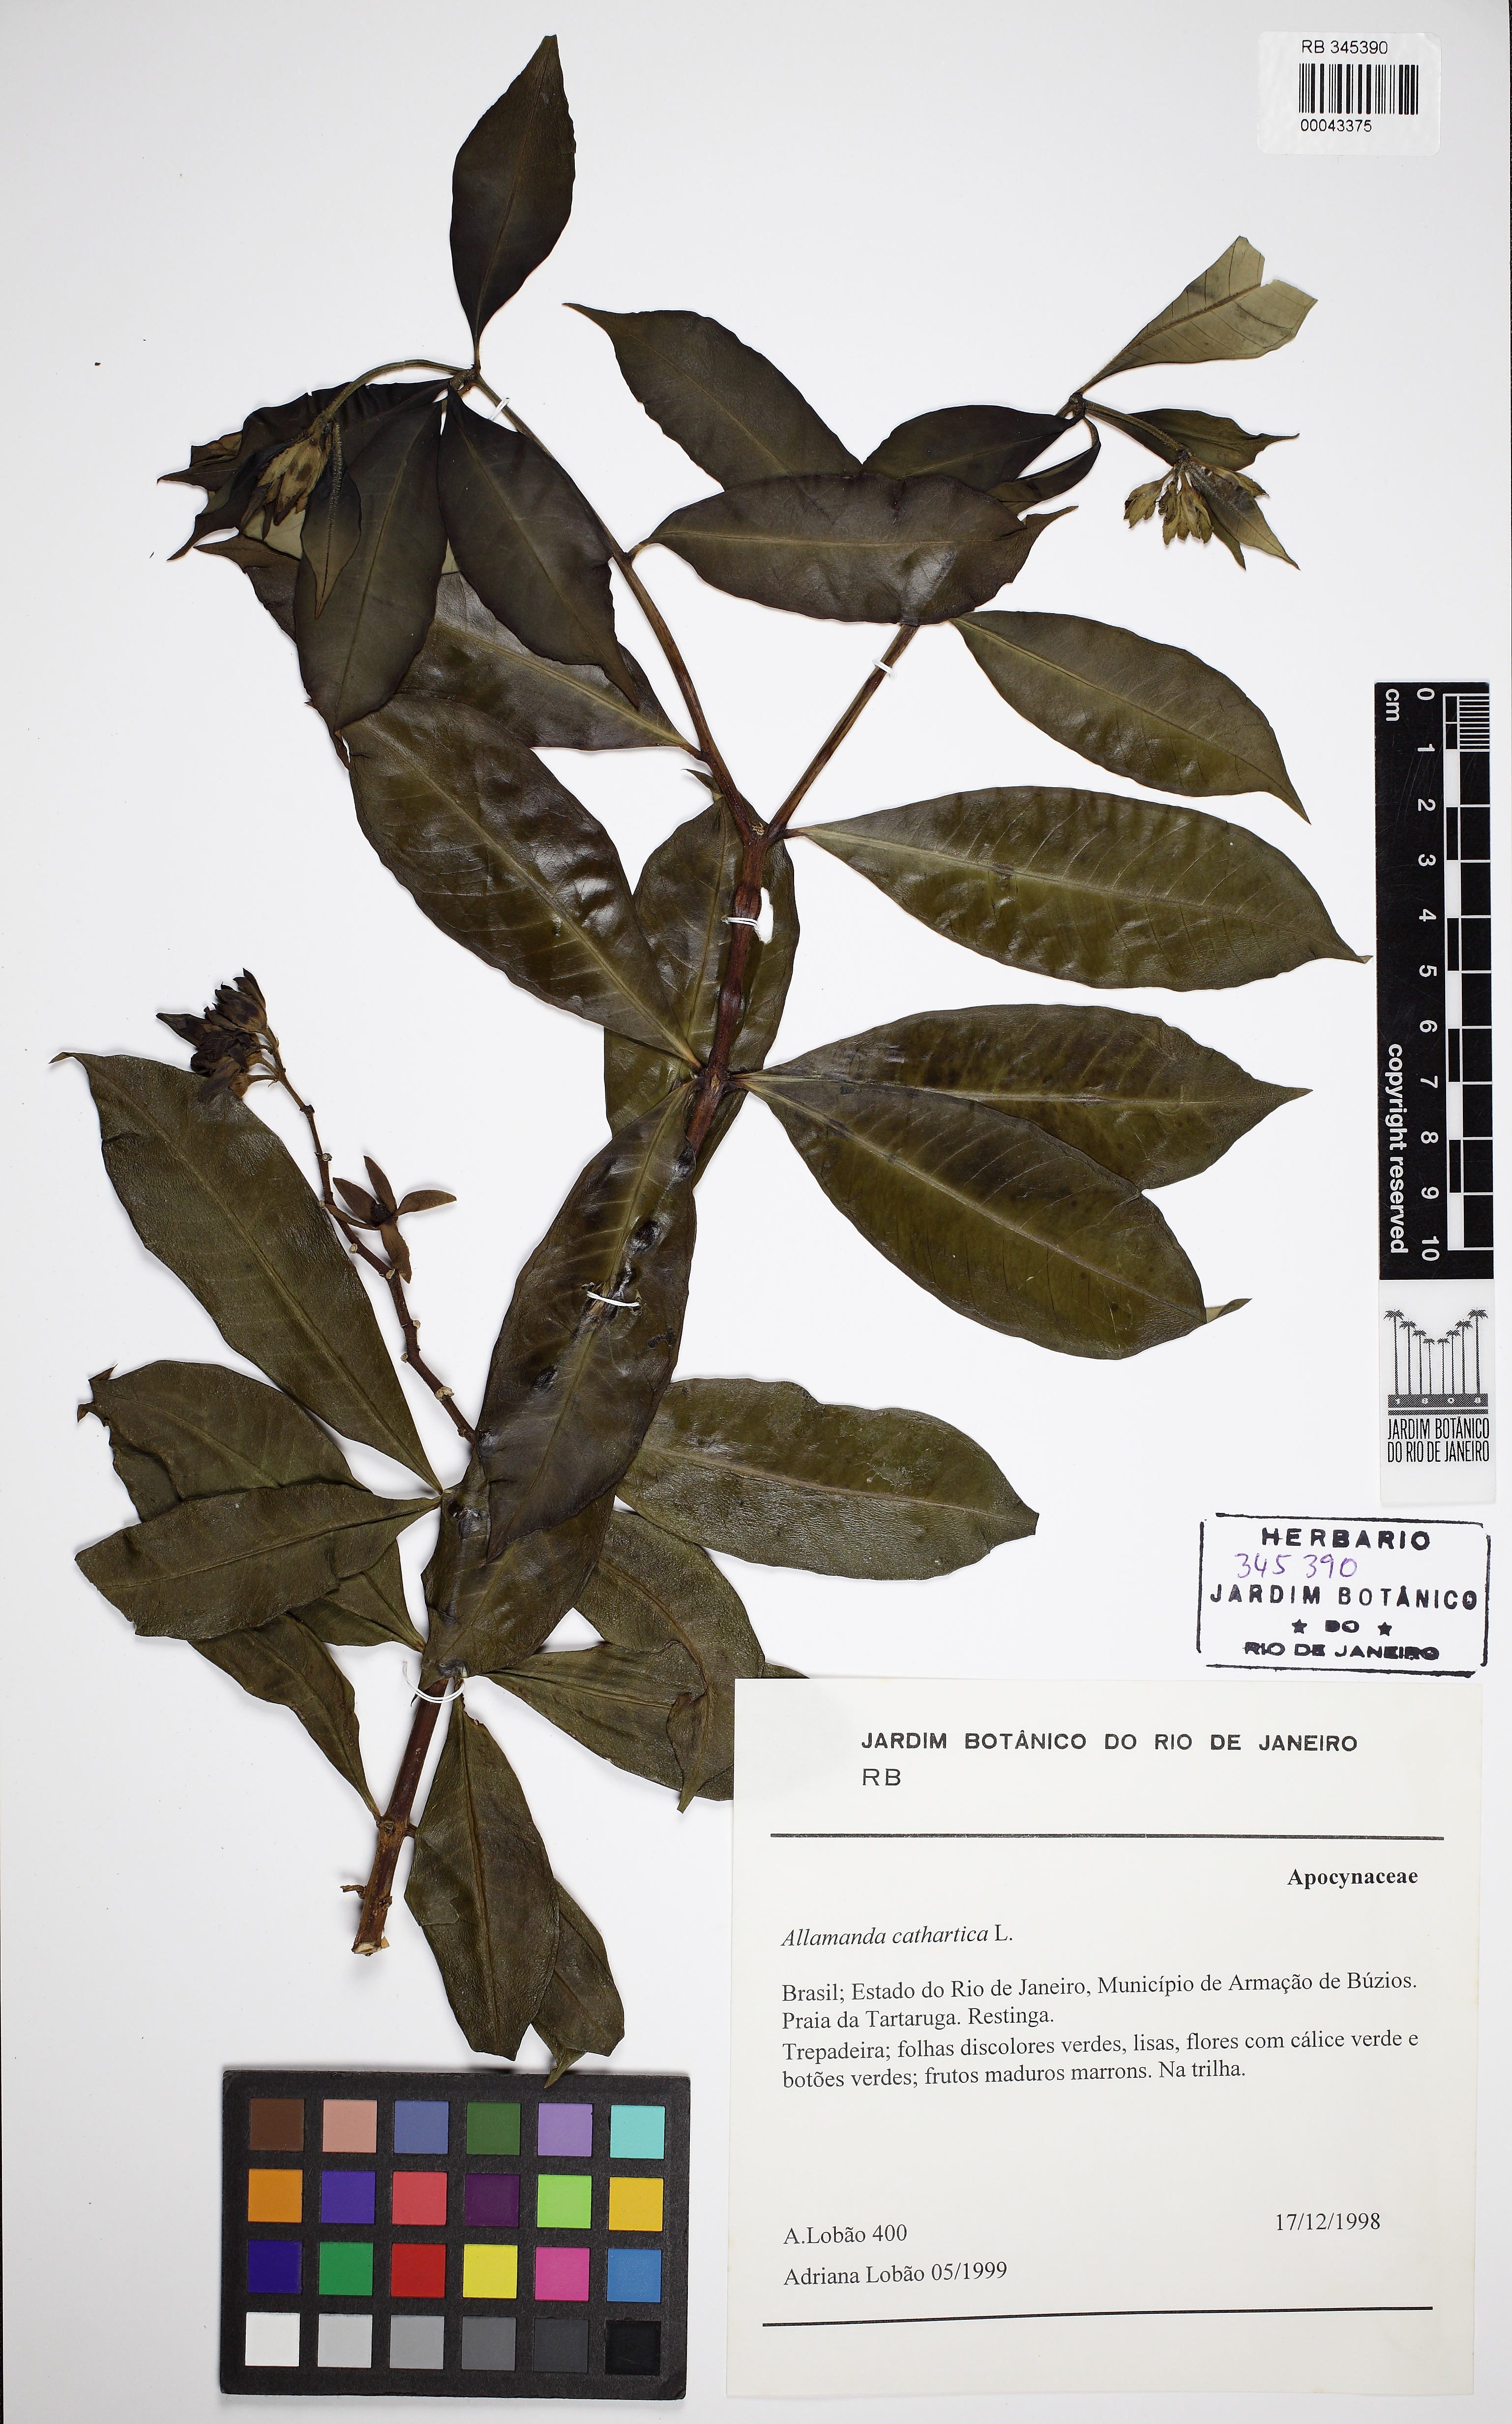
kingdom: Plantae
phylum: Tracheophyta
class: Magnoliopsida
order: Gentianales
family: Apocynaceae
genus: Allamanda
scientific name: Allamanda cathartica
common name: Golden trumpet
